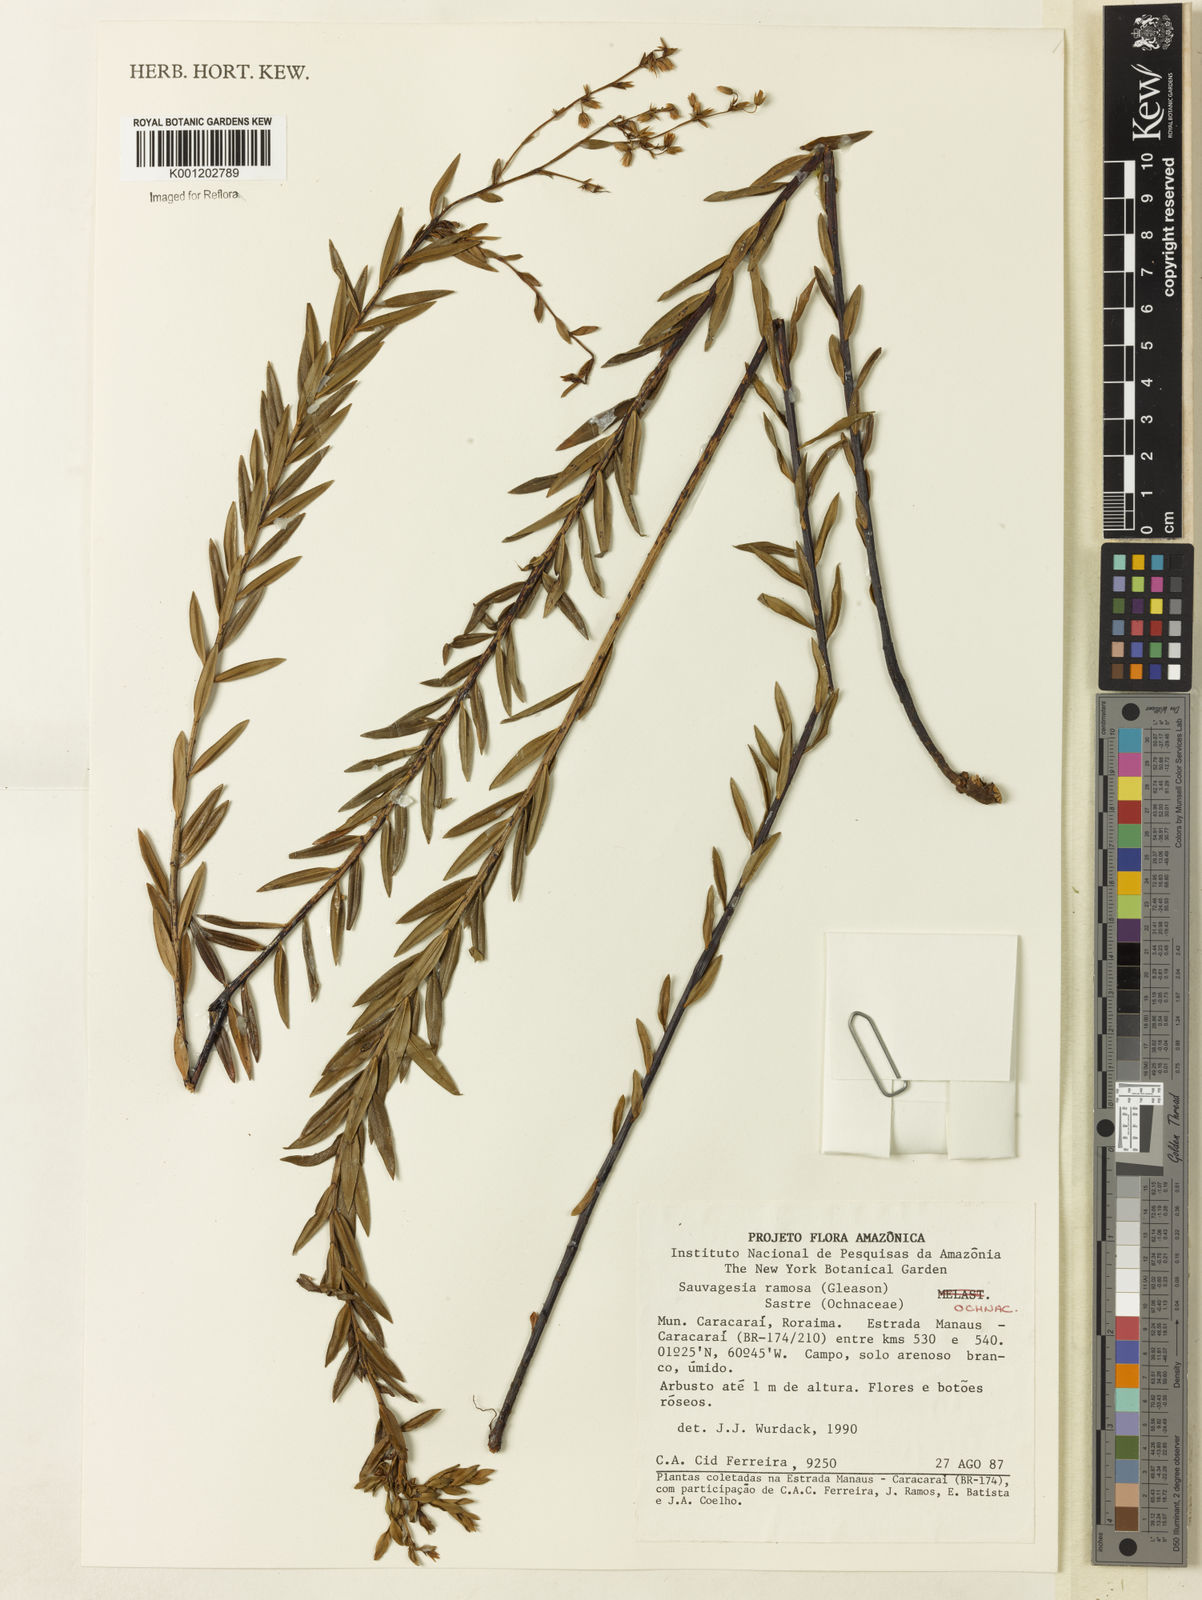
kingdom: Plantae
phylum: Tracheophyta
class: Magnoliopsida
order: Malpighiales
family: Ochnaceae
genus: Sauvagesia
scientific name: Sauvagesia ramosa
